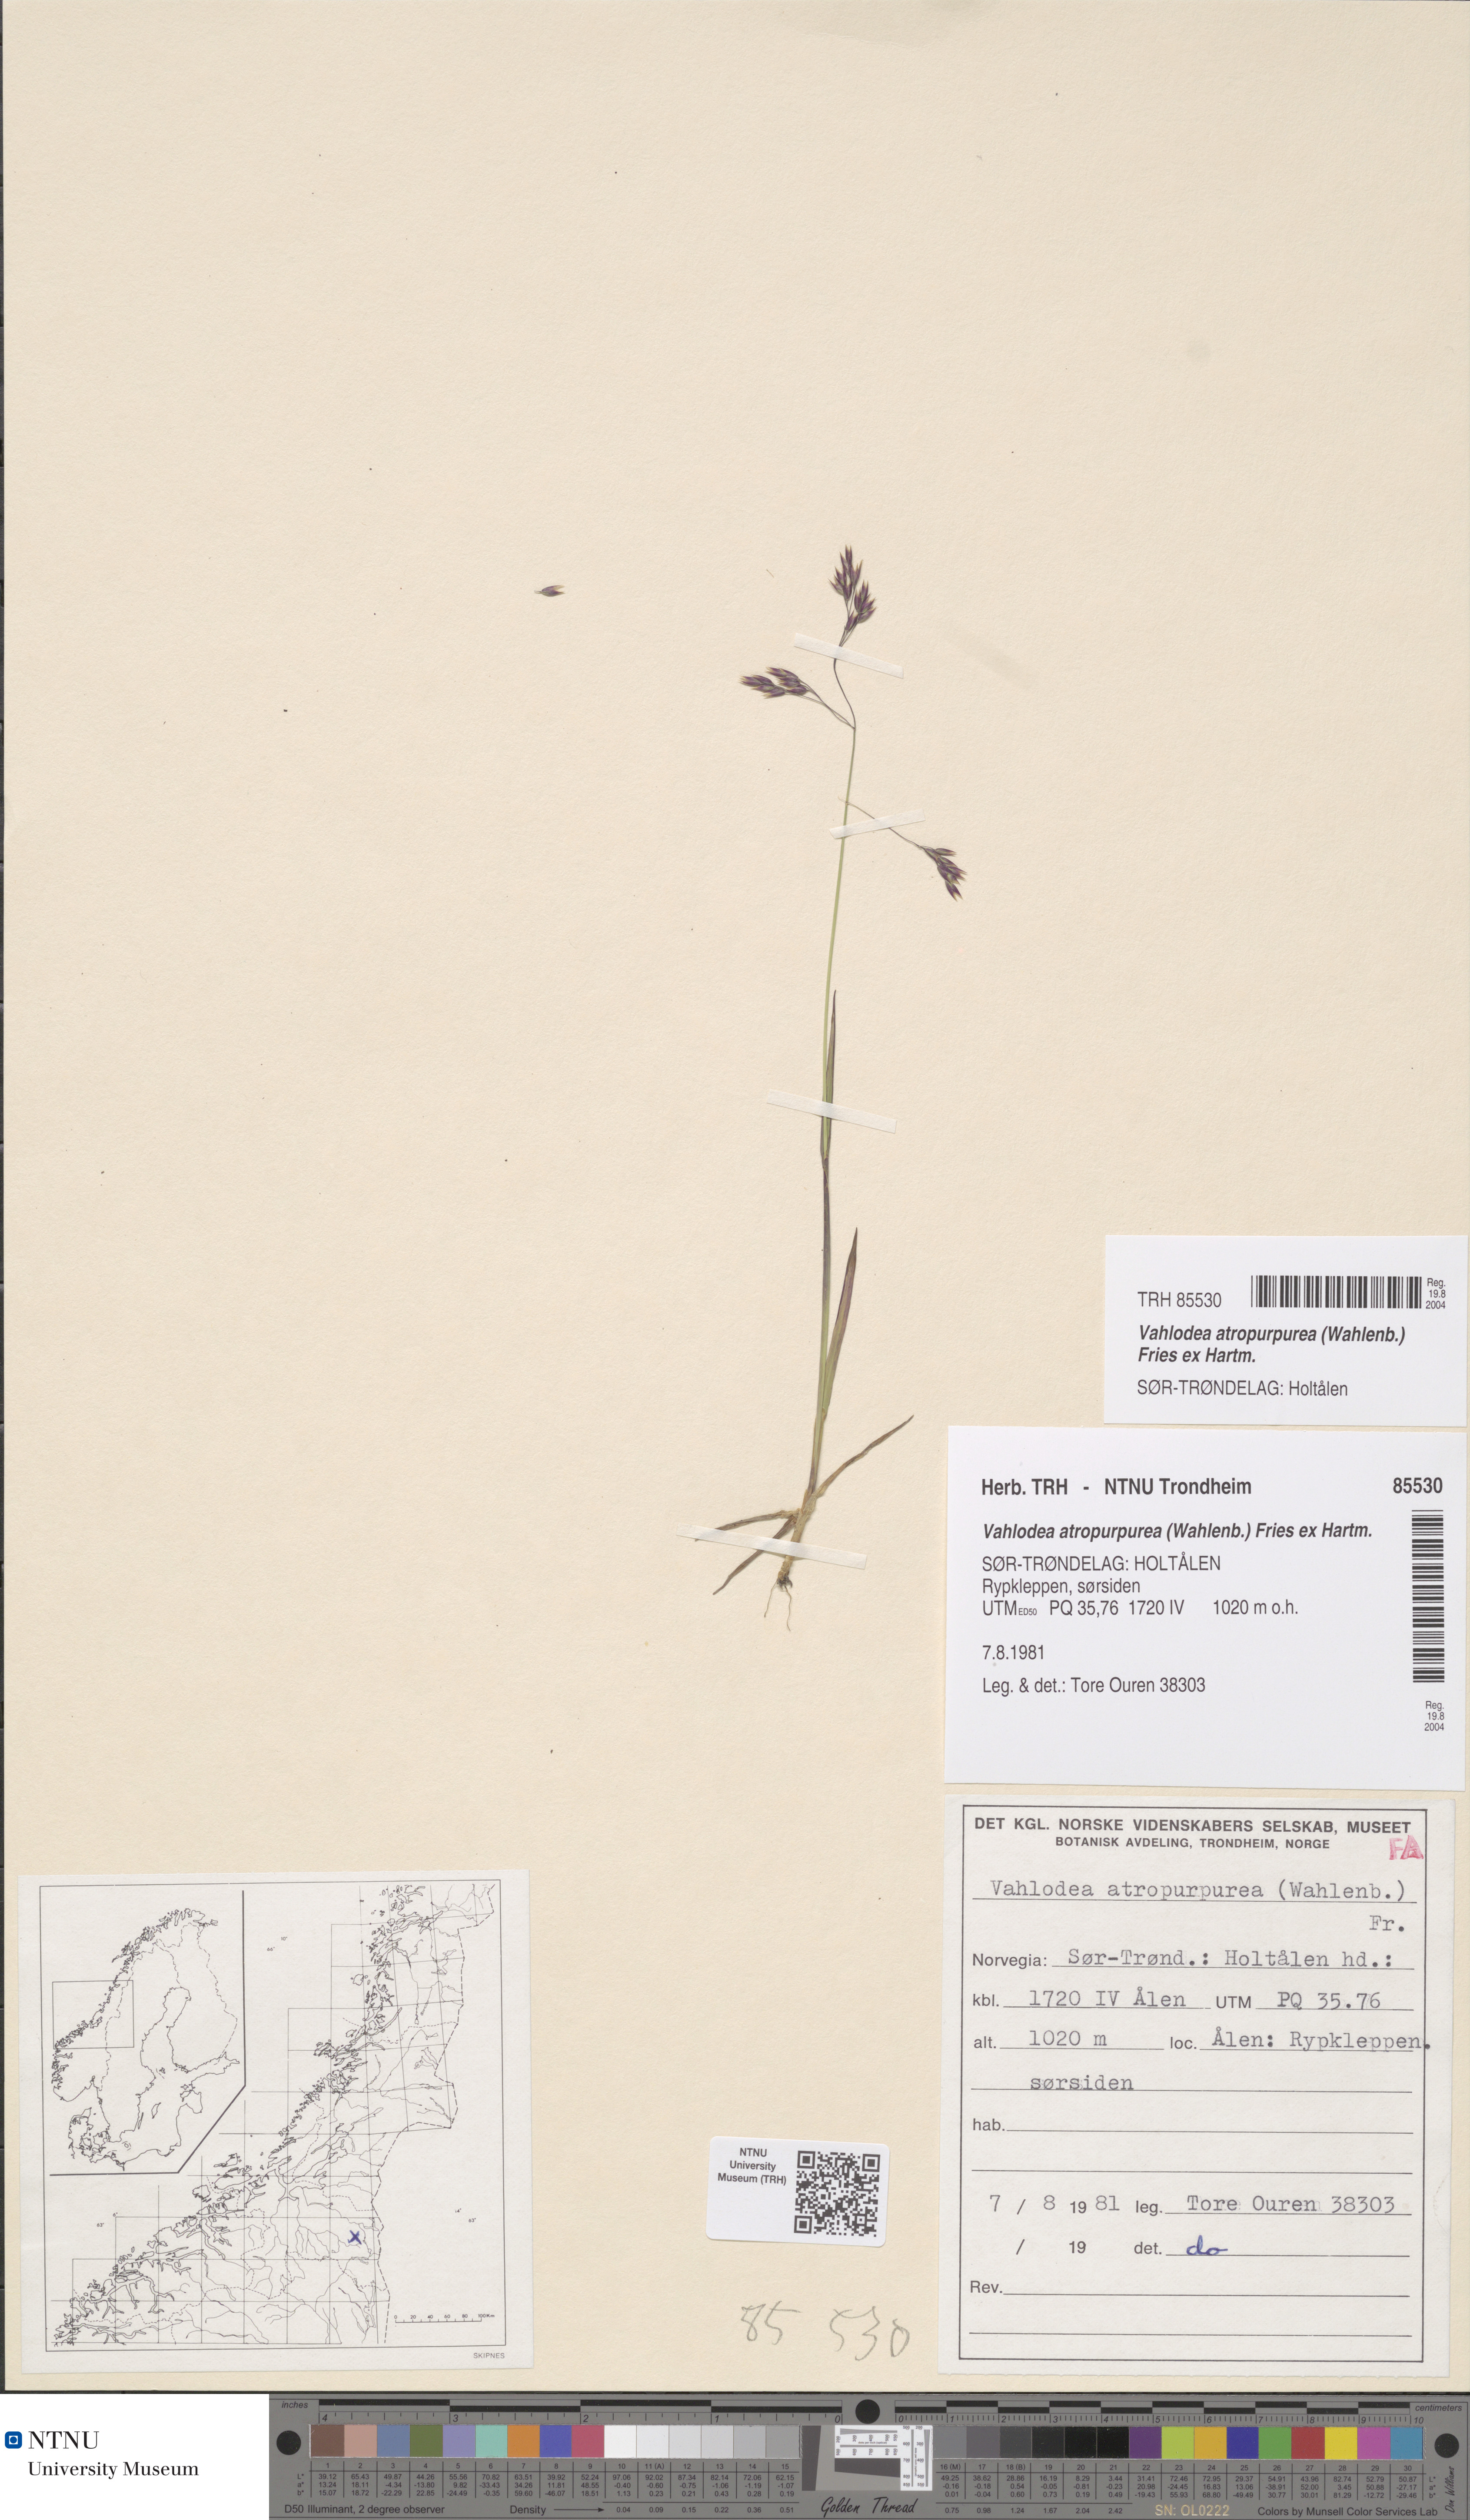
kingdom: Plantae
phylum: Tracheophyta
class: Liliopsida
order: Poales
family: Poaceae
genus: Vahlodea
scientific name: Vahlodea atropurpurea
